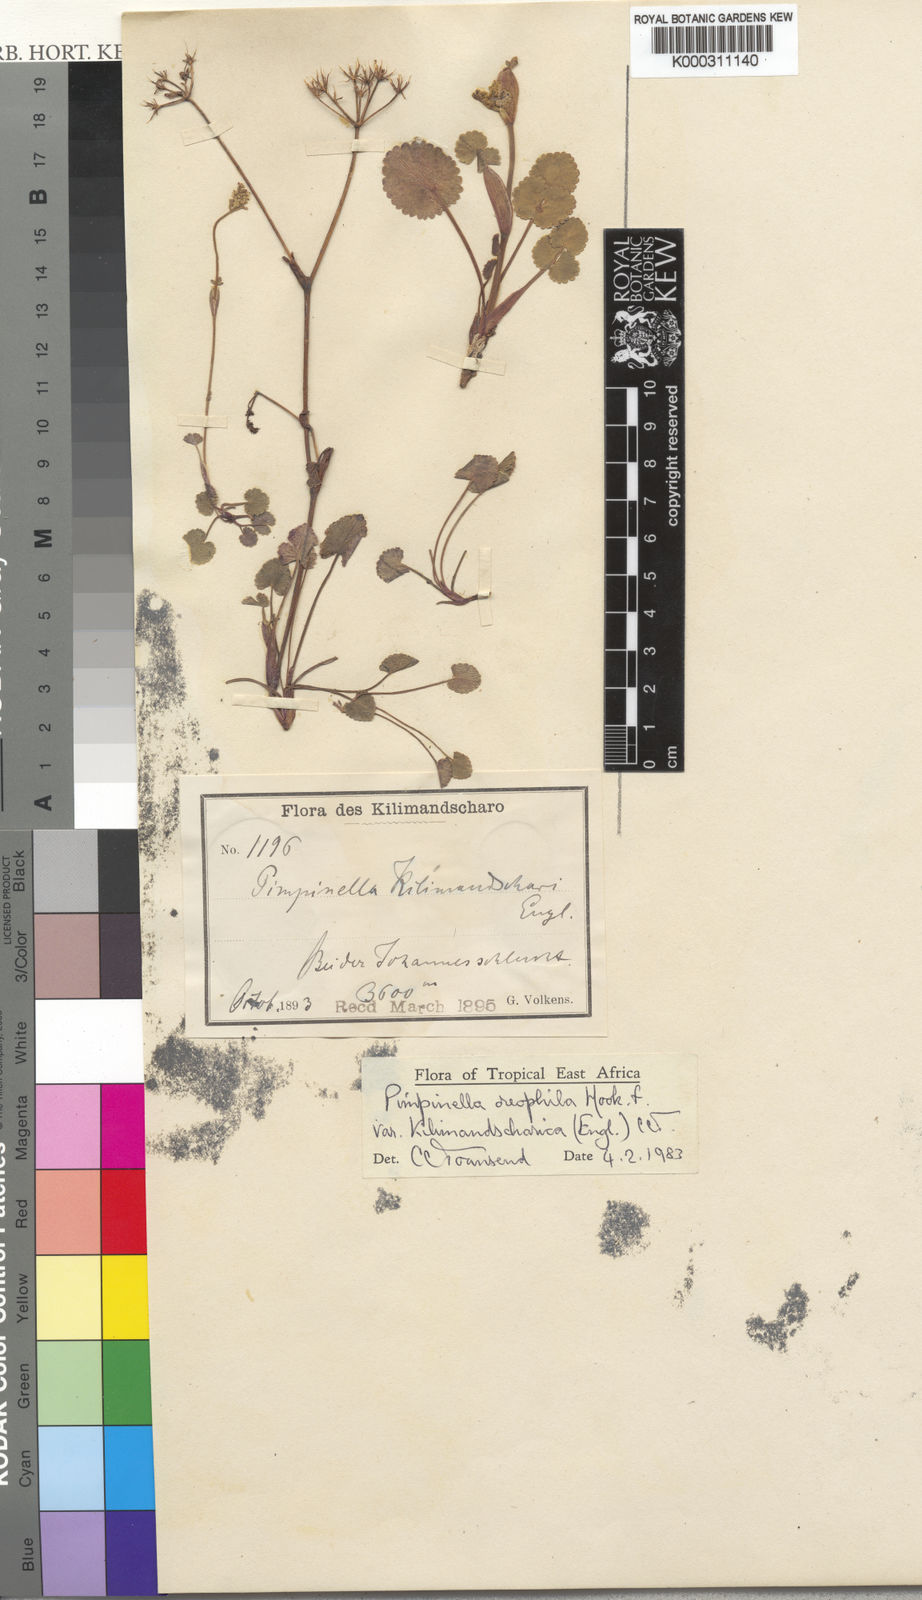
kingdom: Plantae
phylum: Tracheophyta
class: Magnoliopsida
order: Apiales
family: Apiaceae
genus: Pimpinella
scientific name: Pimpinella oreophila
